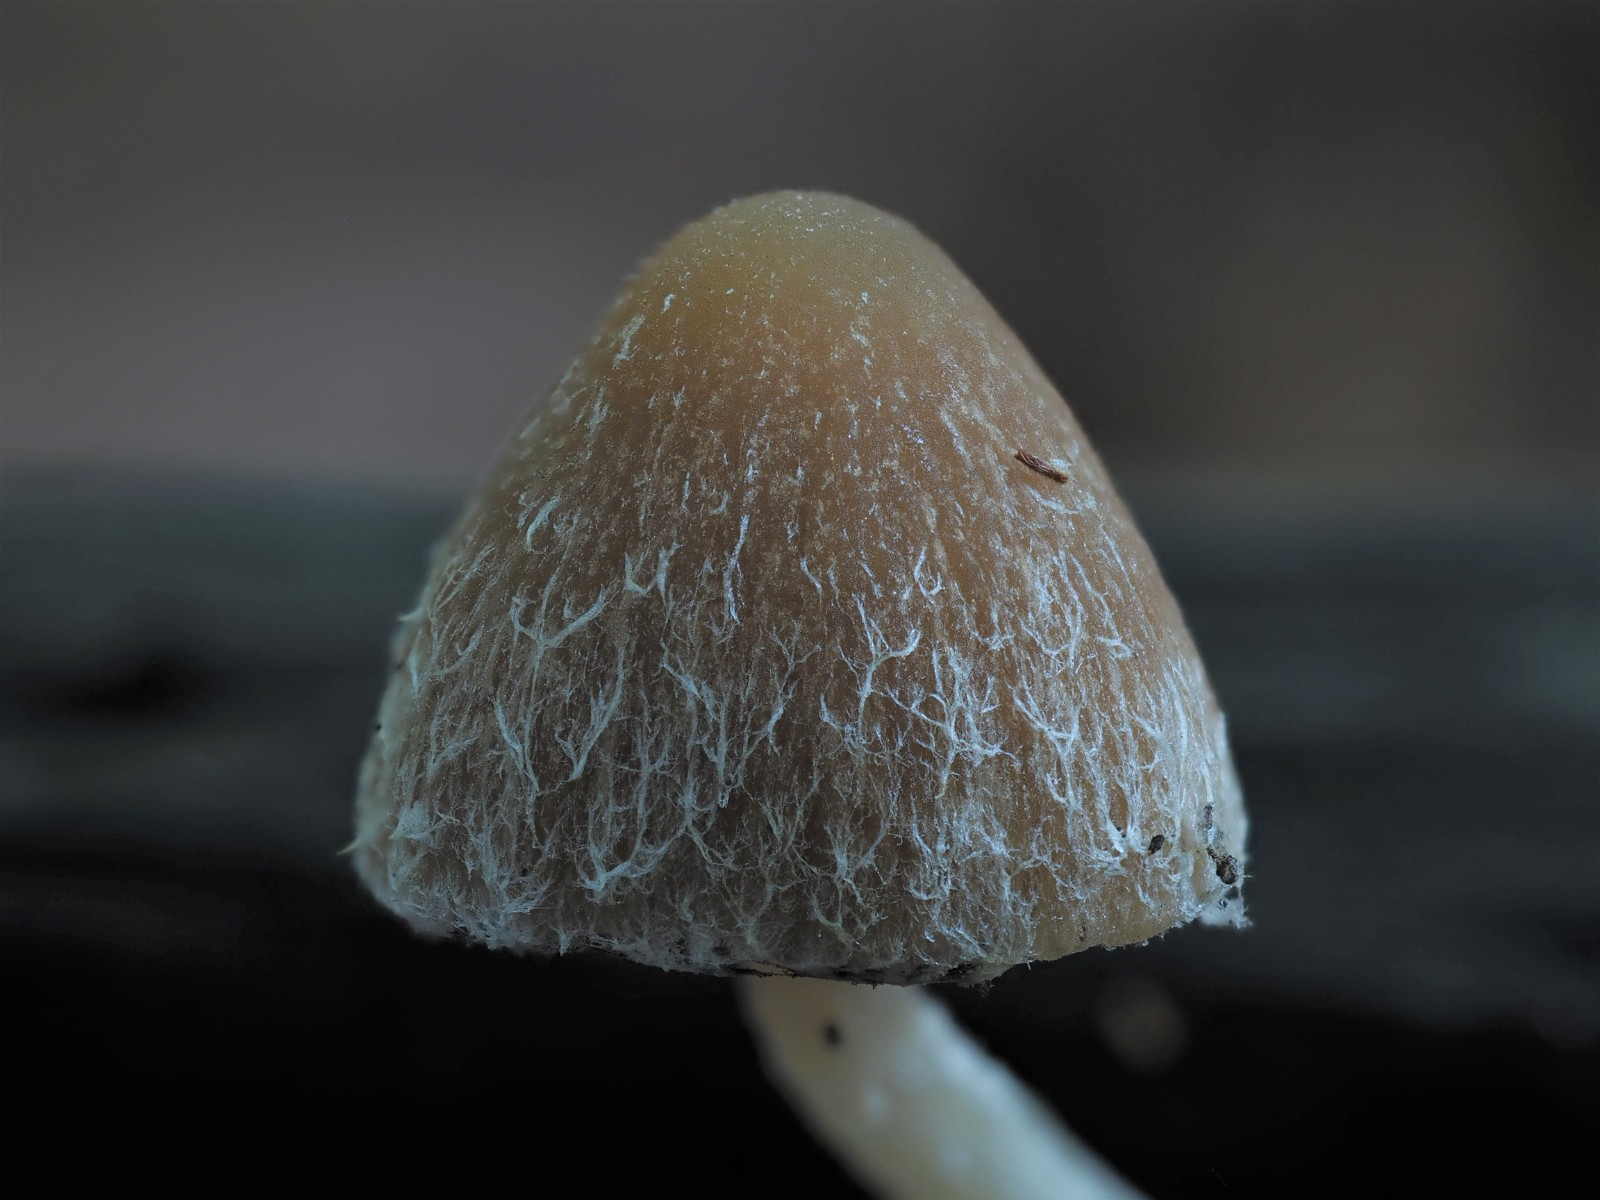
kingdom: Fungi
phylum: Basidiomycota
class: Agaricomycetes
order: Agaricales
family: Psathyrellaceae
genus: Psathyrella
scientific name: Psathyrella
